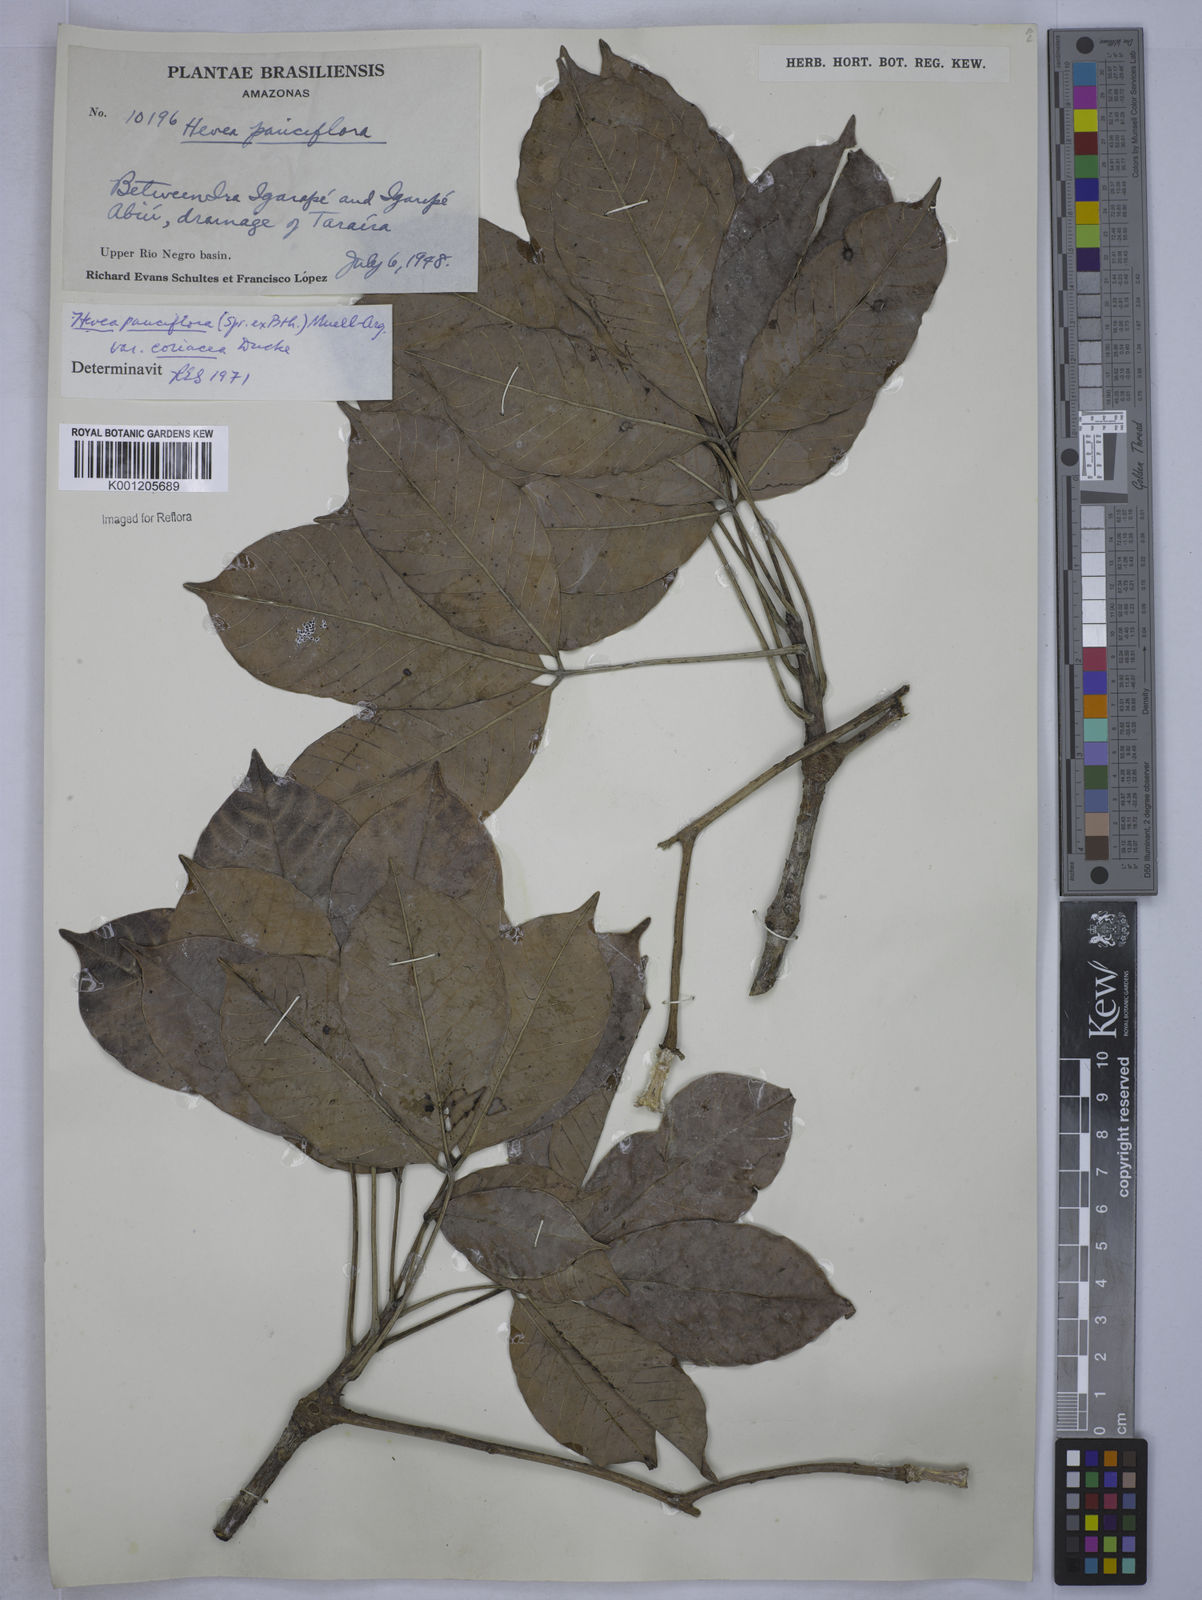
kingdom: Plantae
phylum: Tracheophyta
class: Magnoliopsida
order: Malpighiales
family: Euphorbiaceae
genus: Hevea
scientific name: Hevea pauciflora
